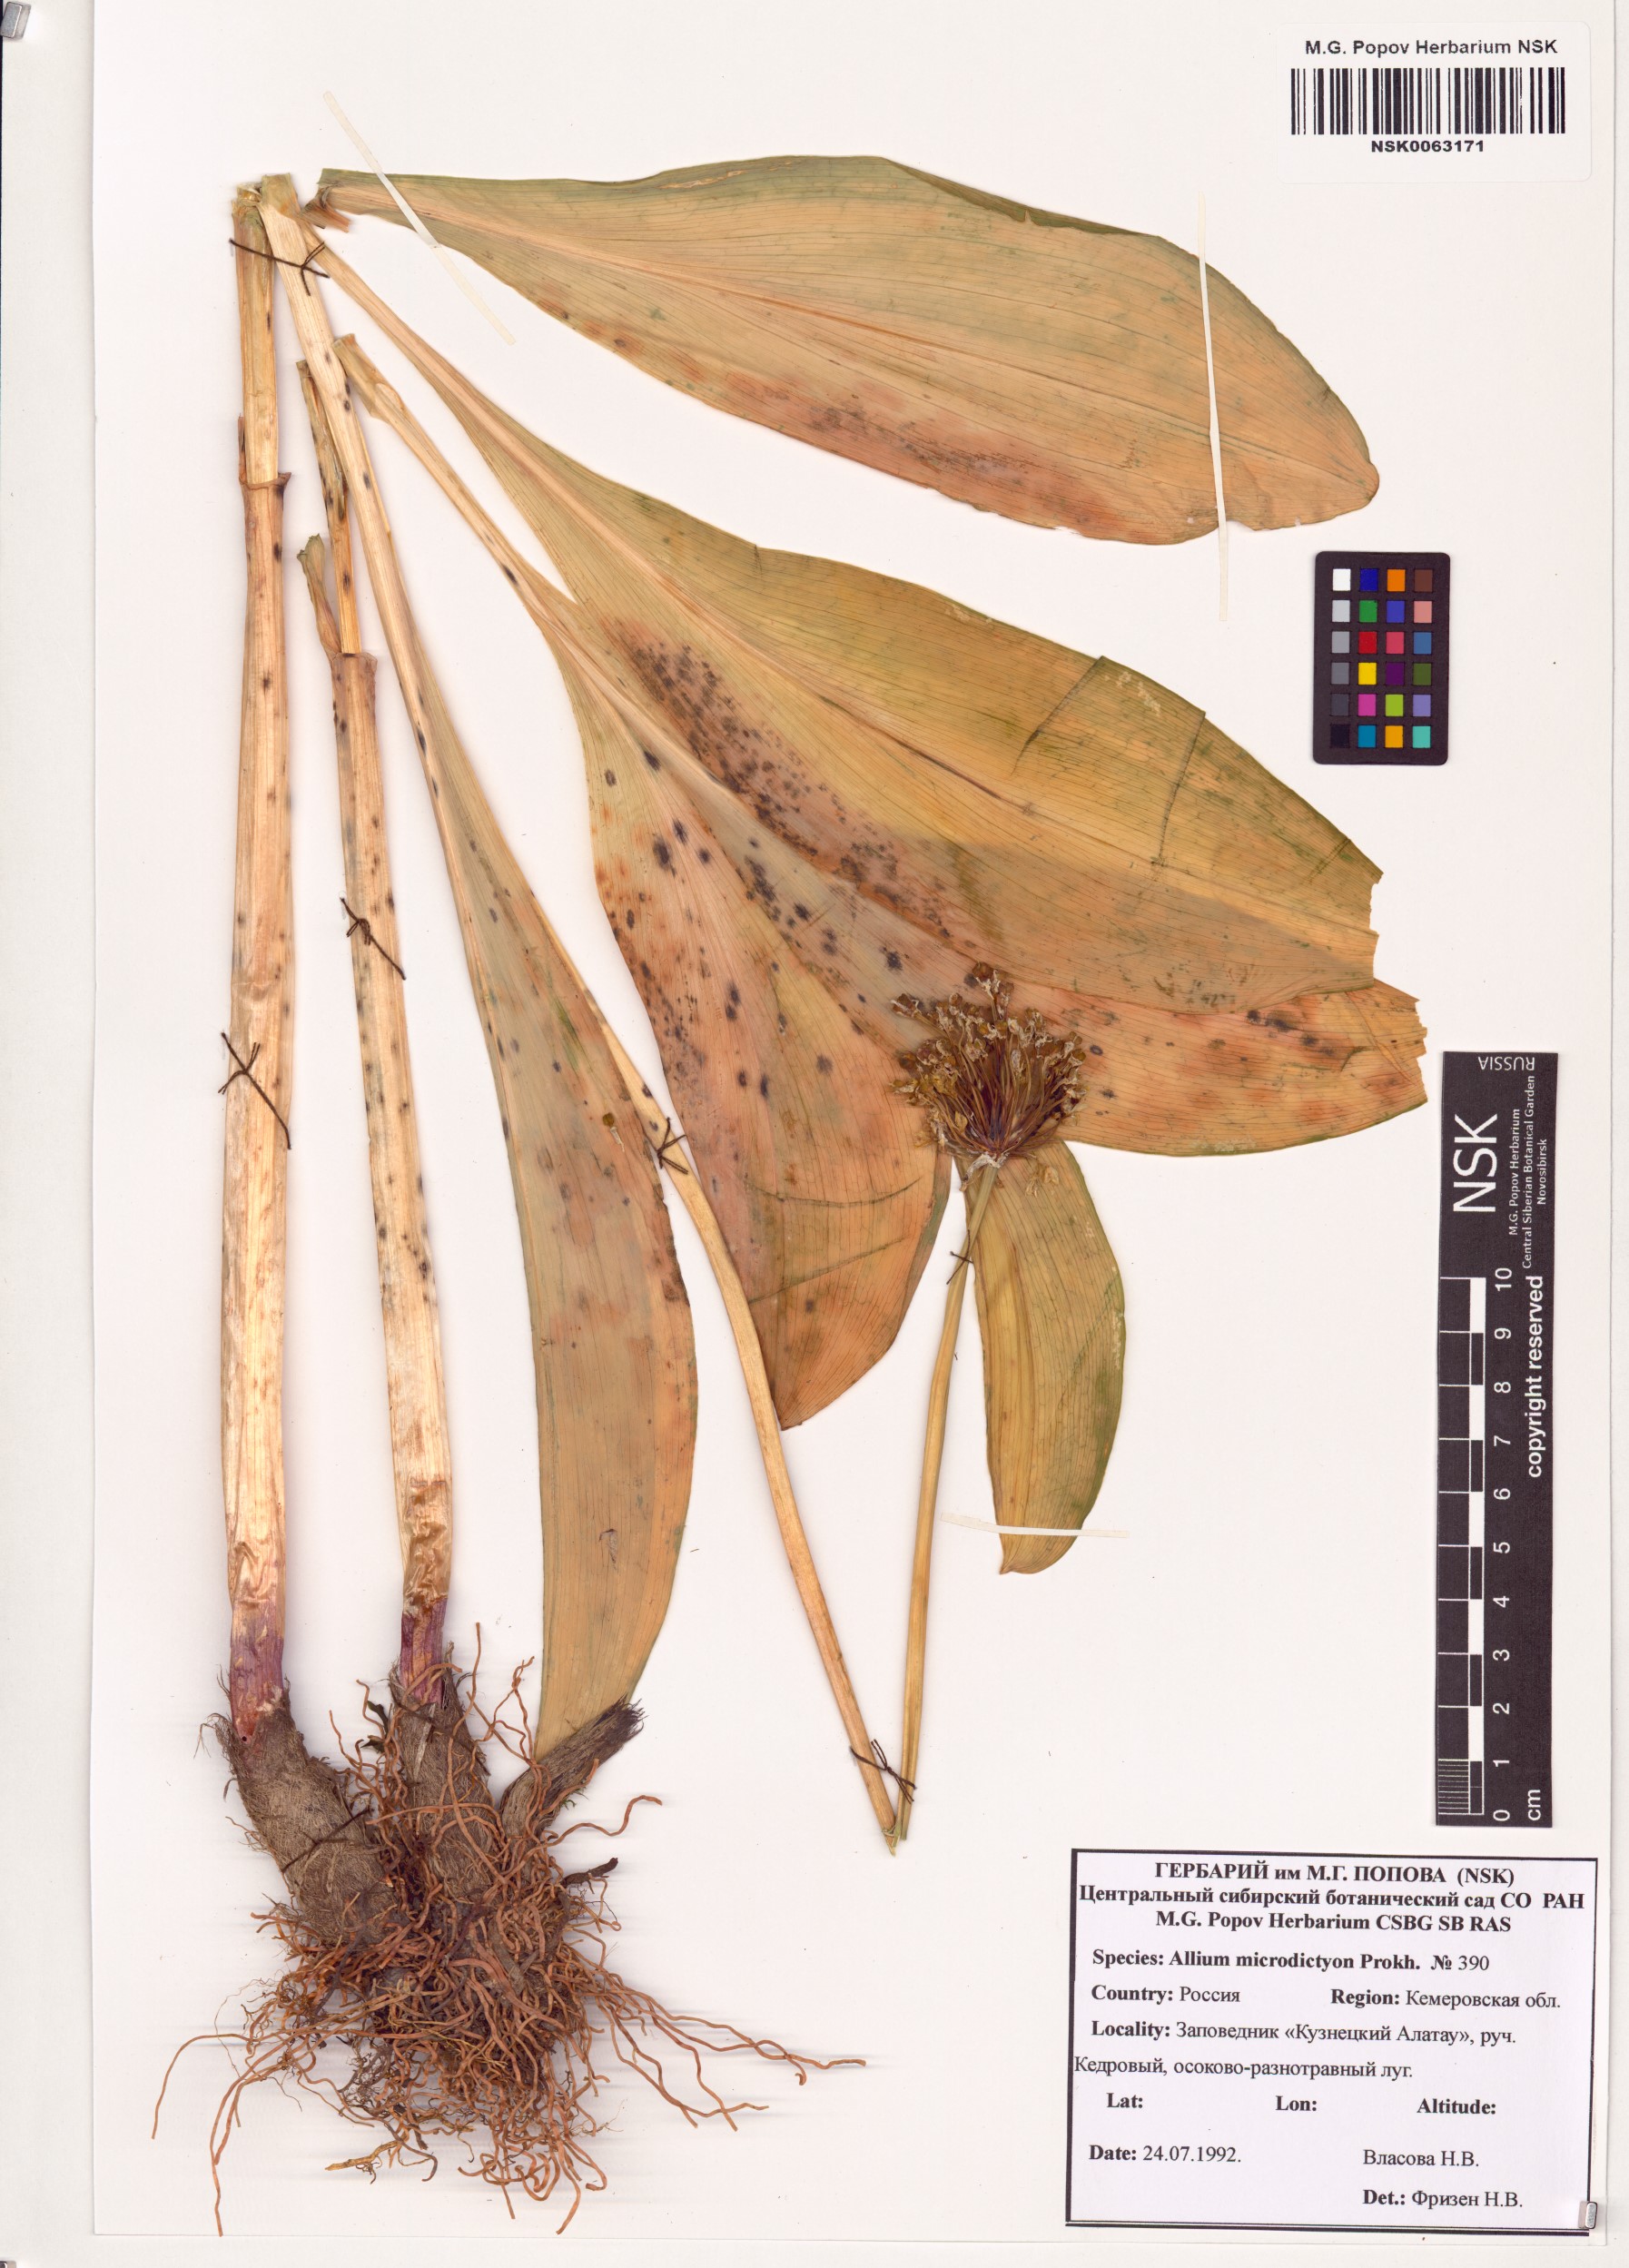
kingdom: Plantae
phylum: Tracheophyta
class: Liliopsida
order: Asparagales
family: Amaryllidaceae
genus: Allium
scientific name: Allium microdictyon
